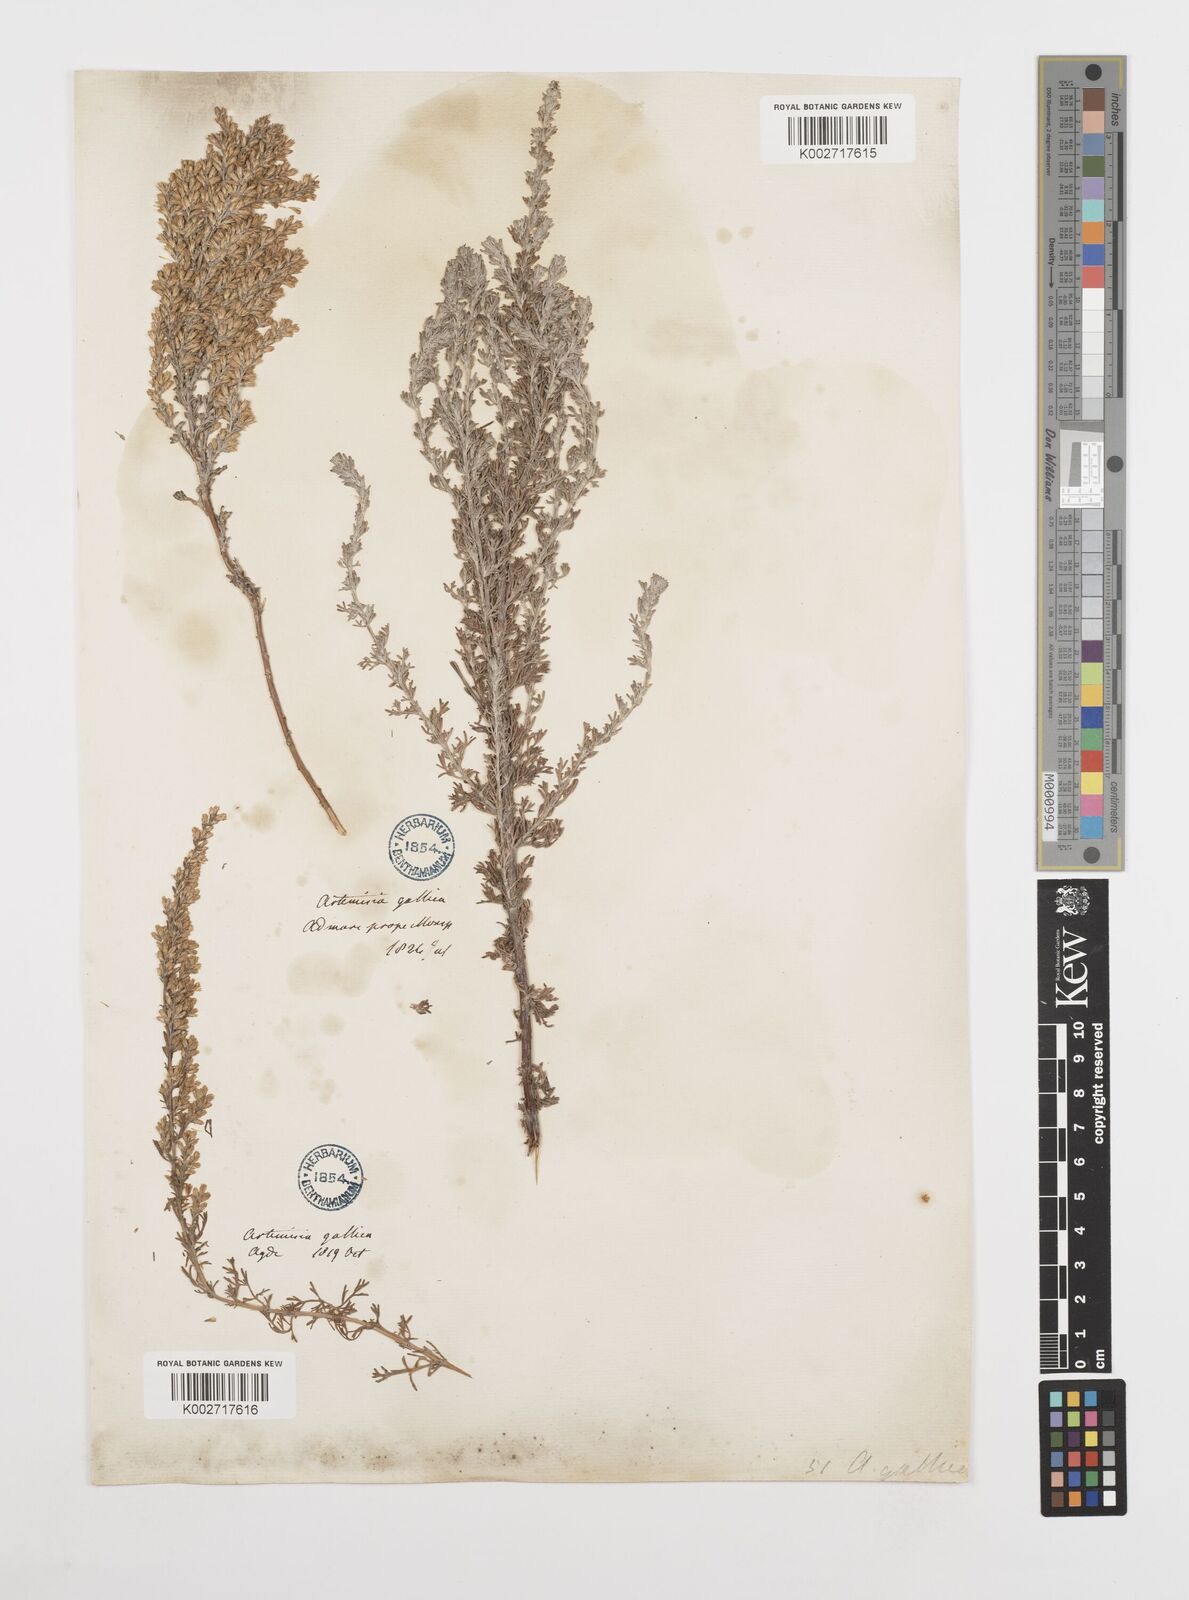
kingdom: Plantae
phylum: Tracheophyta
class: Magnoliopsida
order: Asterales
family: Asteraceae
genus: Artemisia
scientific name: Artemisia campestris
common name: Field wormwood
